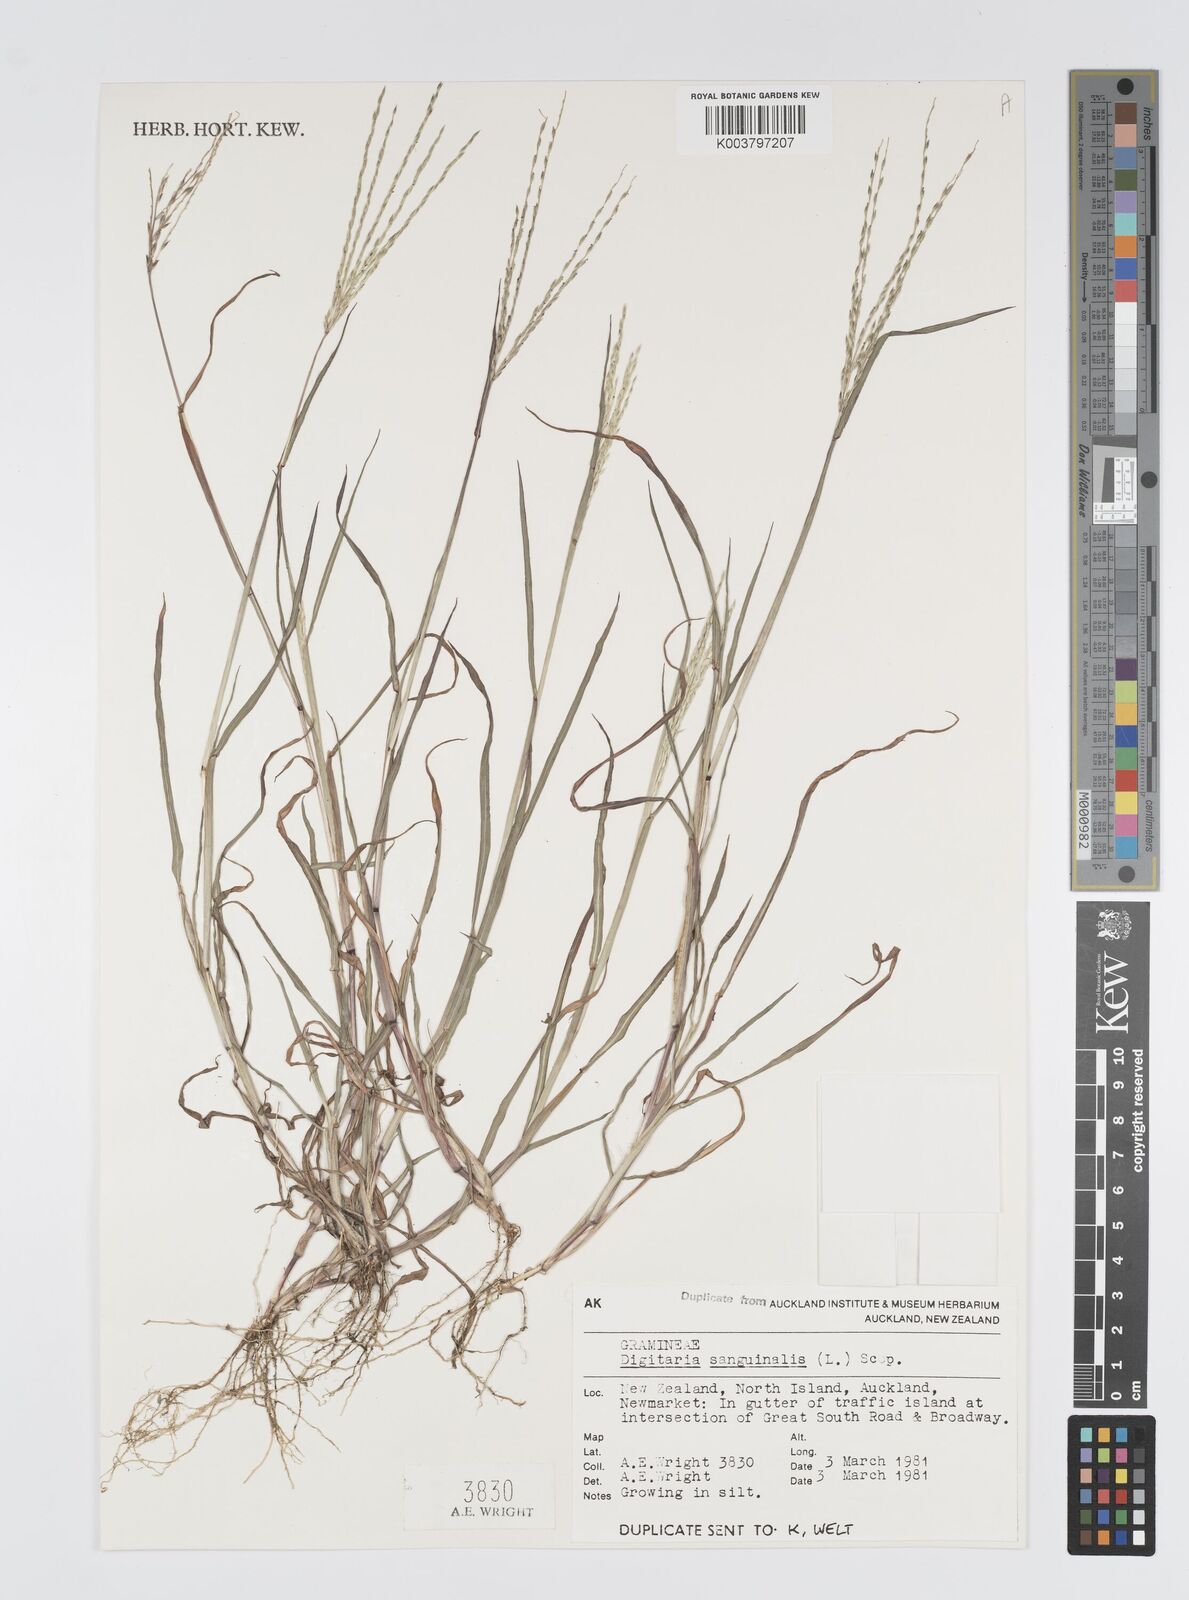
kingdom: Plantae
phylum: Tracheophyta
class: Liliopsida
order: Poales
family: Poaceae
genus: Digitaria
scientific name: Digitaria sanguinalis
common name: Hairy crabgrass
